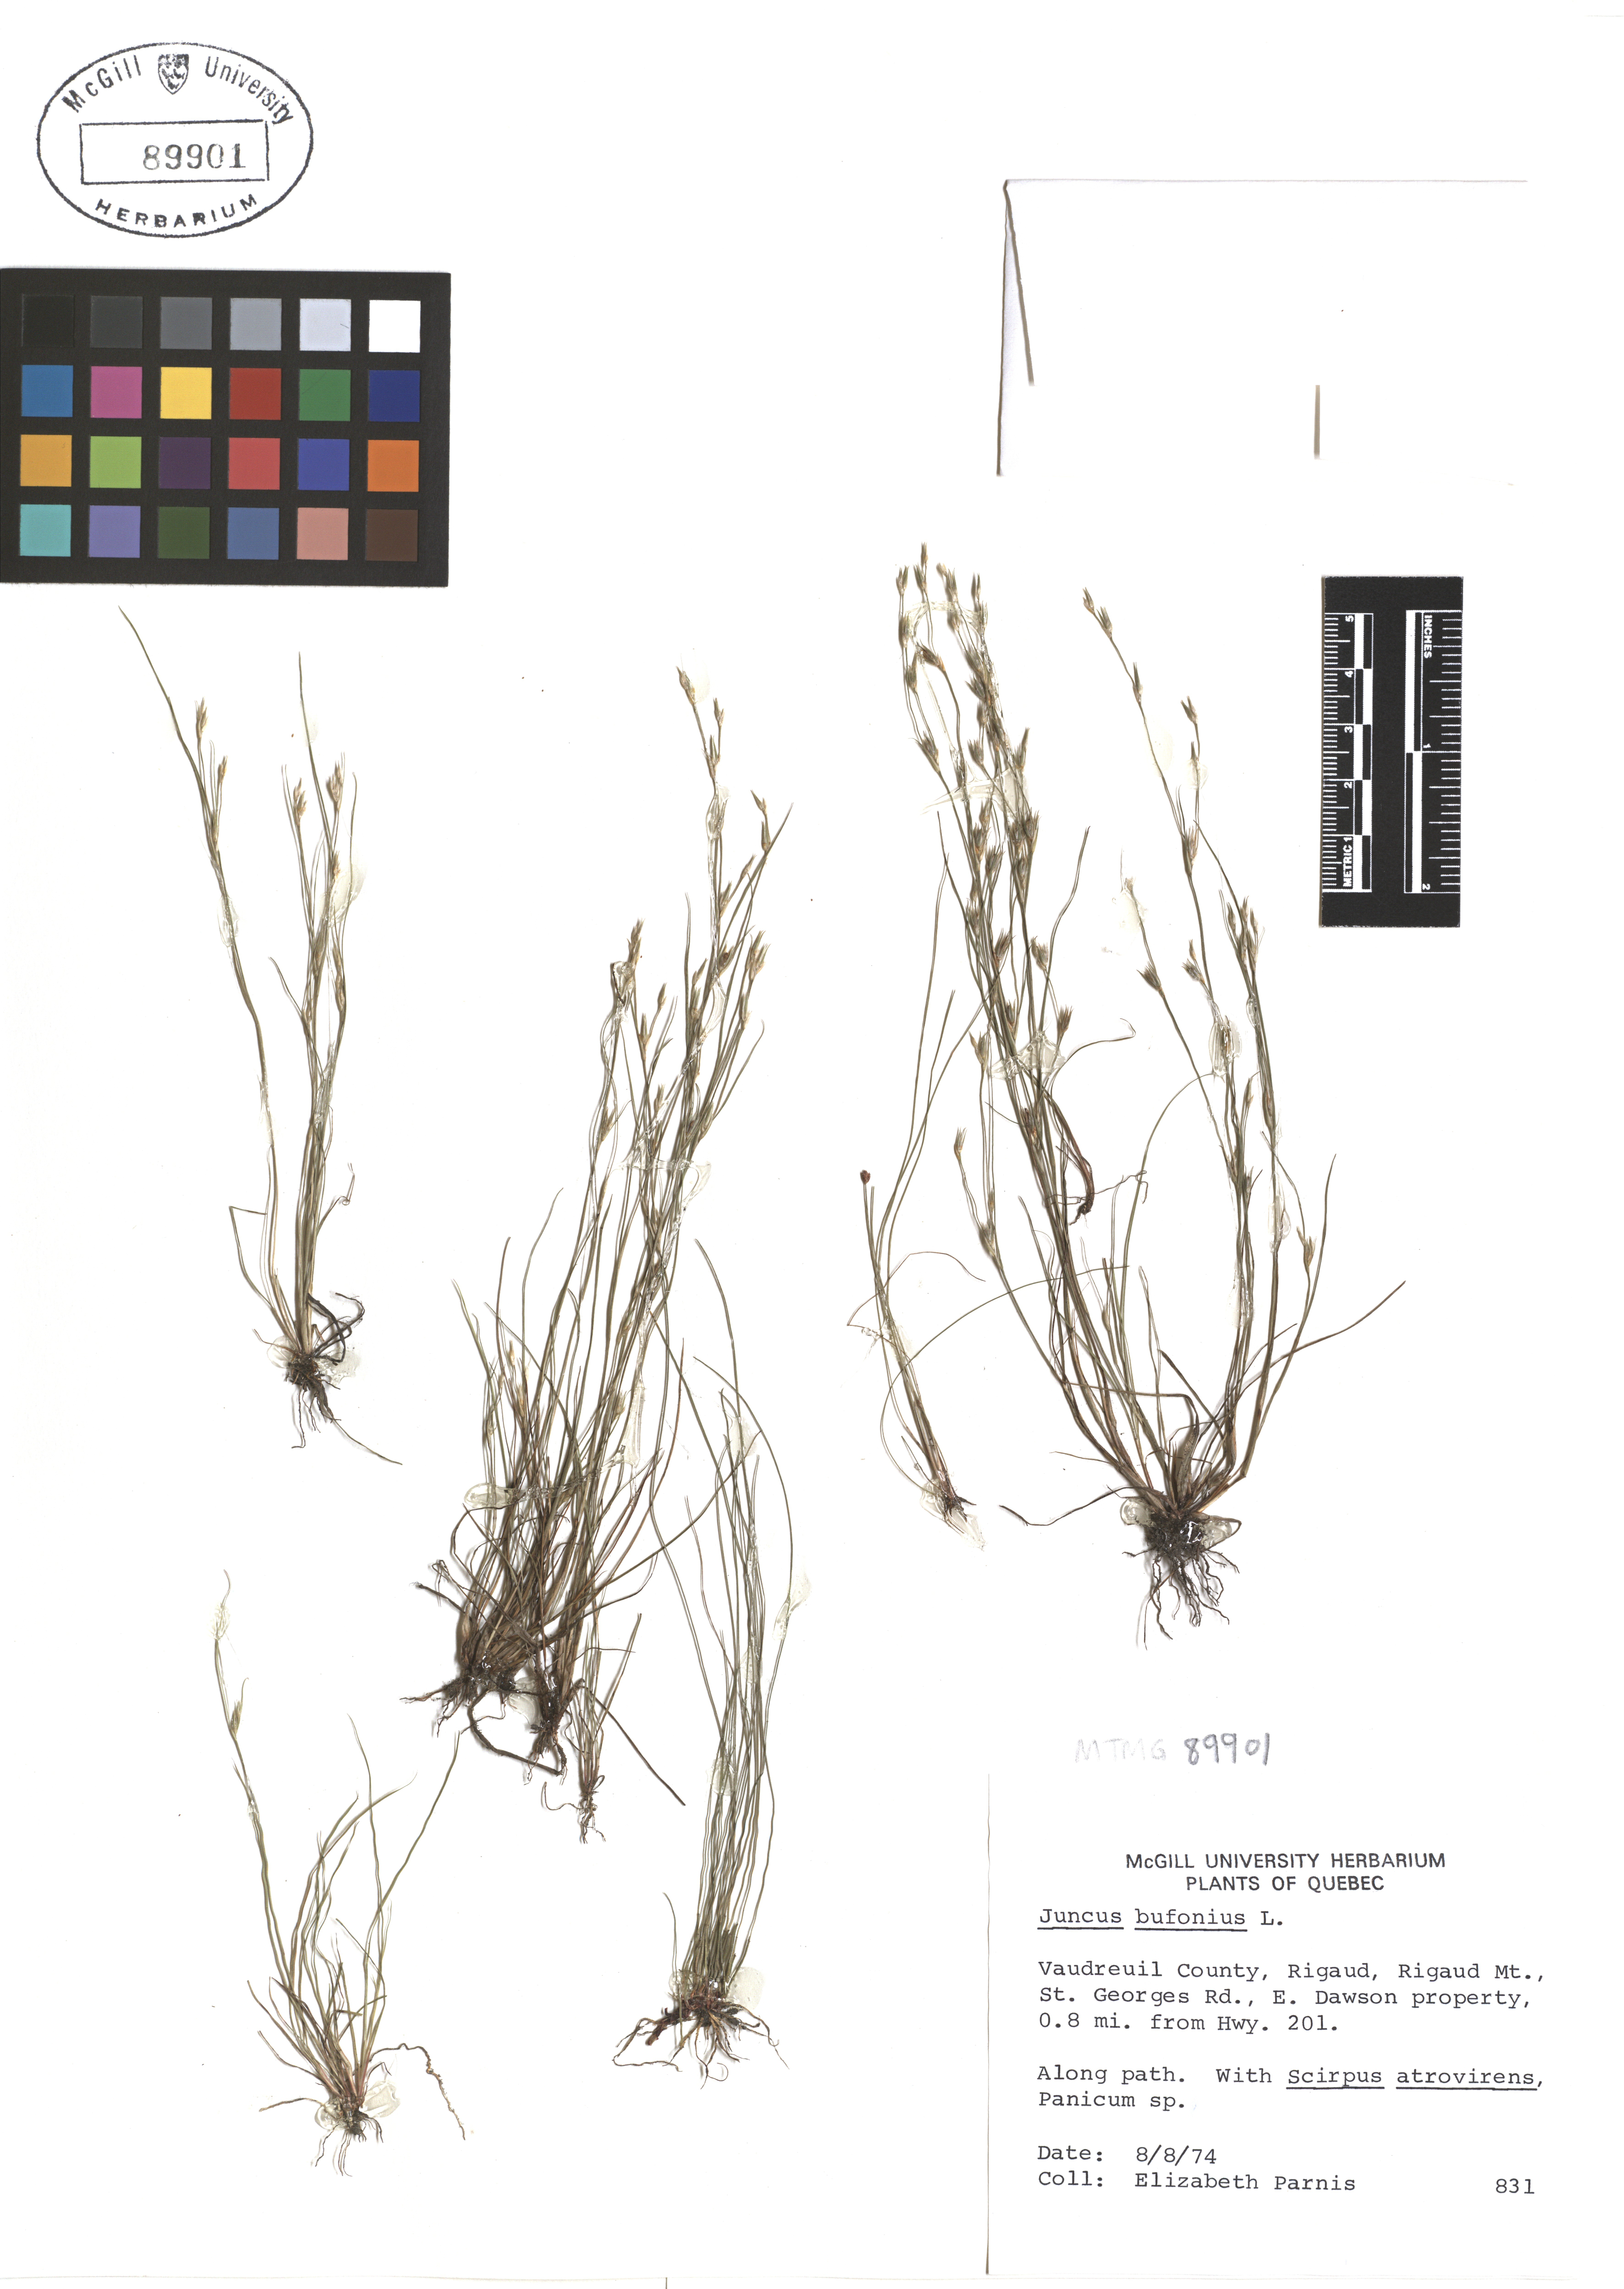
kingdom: Plantae
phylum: Tracheophyta
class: Liliopsida
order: Poales
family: Juncaceae
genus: Juncus
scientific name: Juncus bufonius
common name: Toad rush
